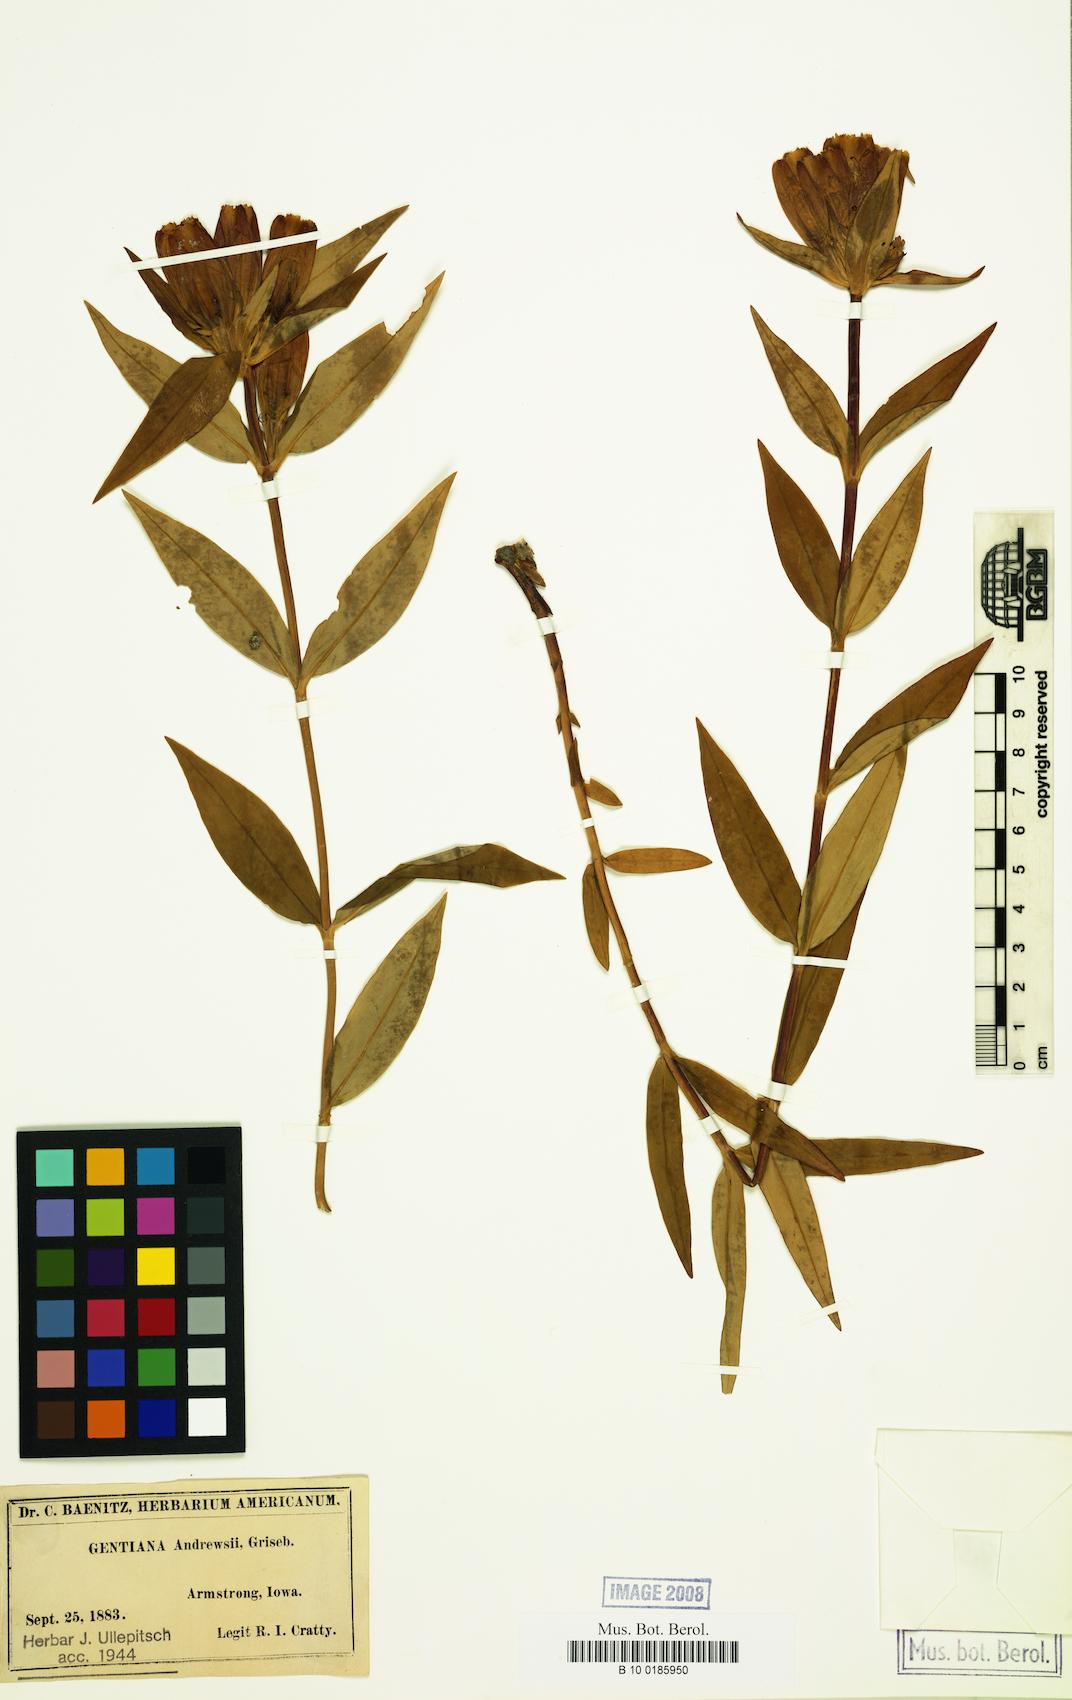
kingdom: Plantae
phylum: Tracheophyta
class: Magnoliopsida
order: Gentianales
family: Gentianaceae
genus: Gentiana
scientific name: Gentiana andrewsii
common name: Bottle gentian
